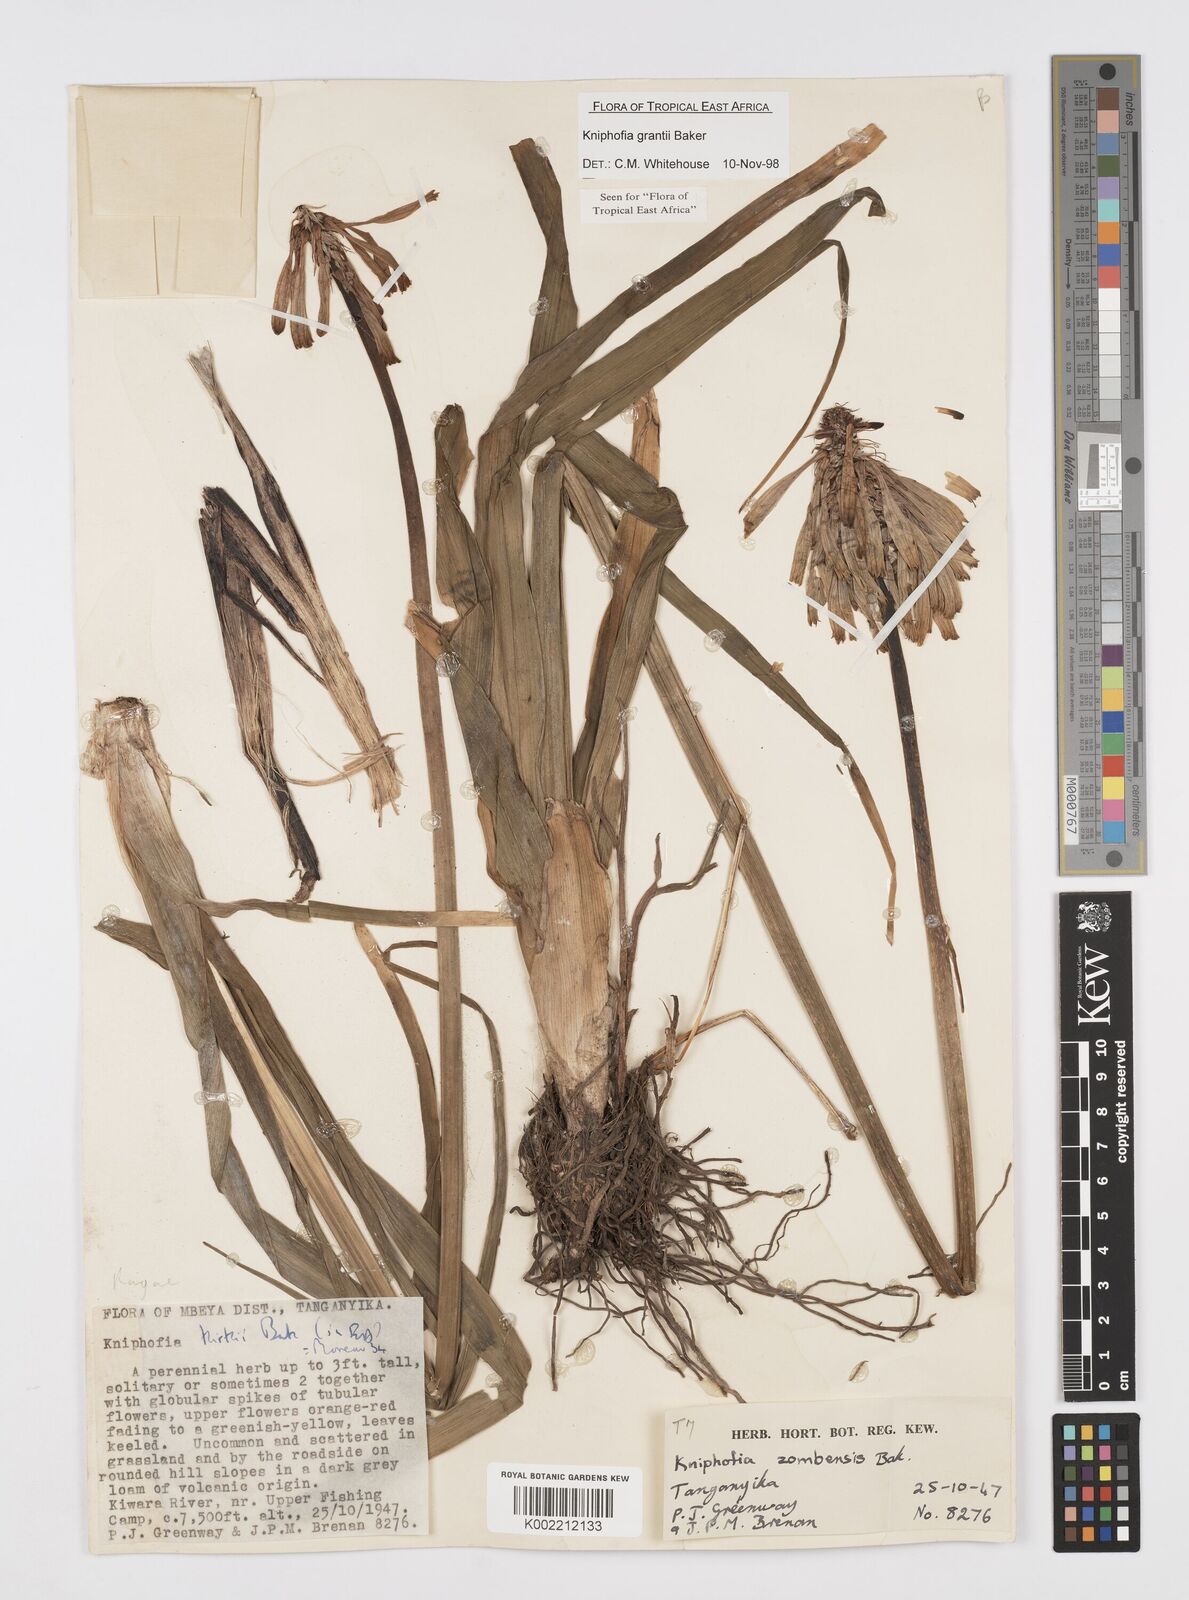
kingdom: Plantae
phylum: Tracheophyta
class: Liliopsida
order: Asparagales
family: Asphodelaceae
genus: Kniphofia
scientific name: Kniphofia grantii
